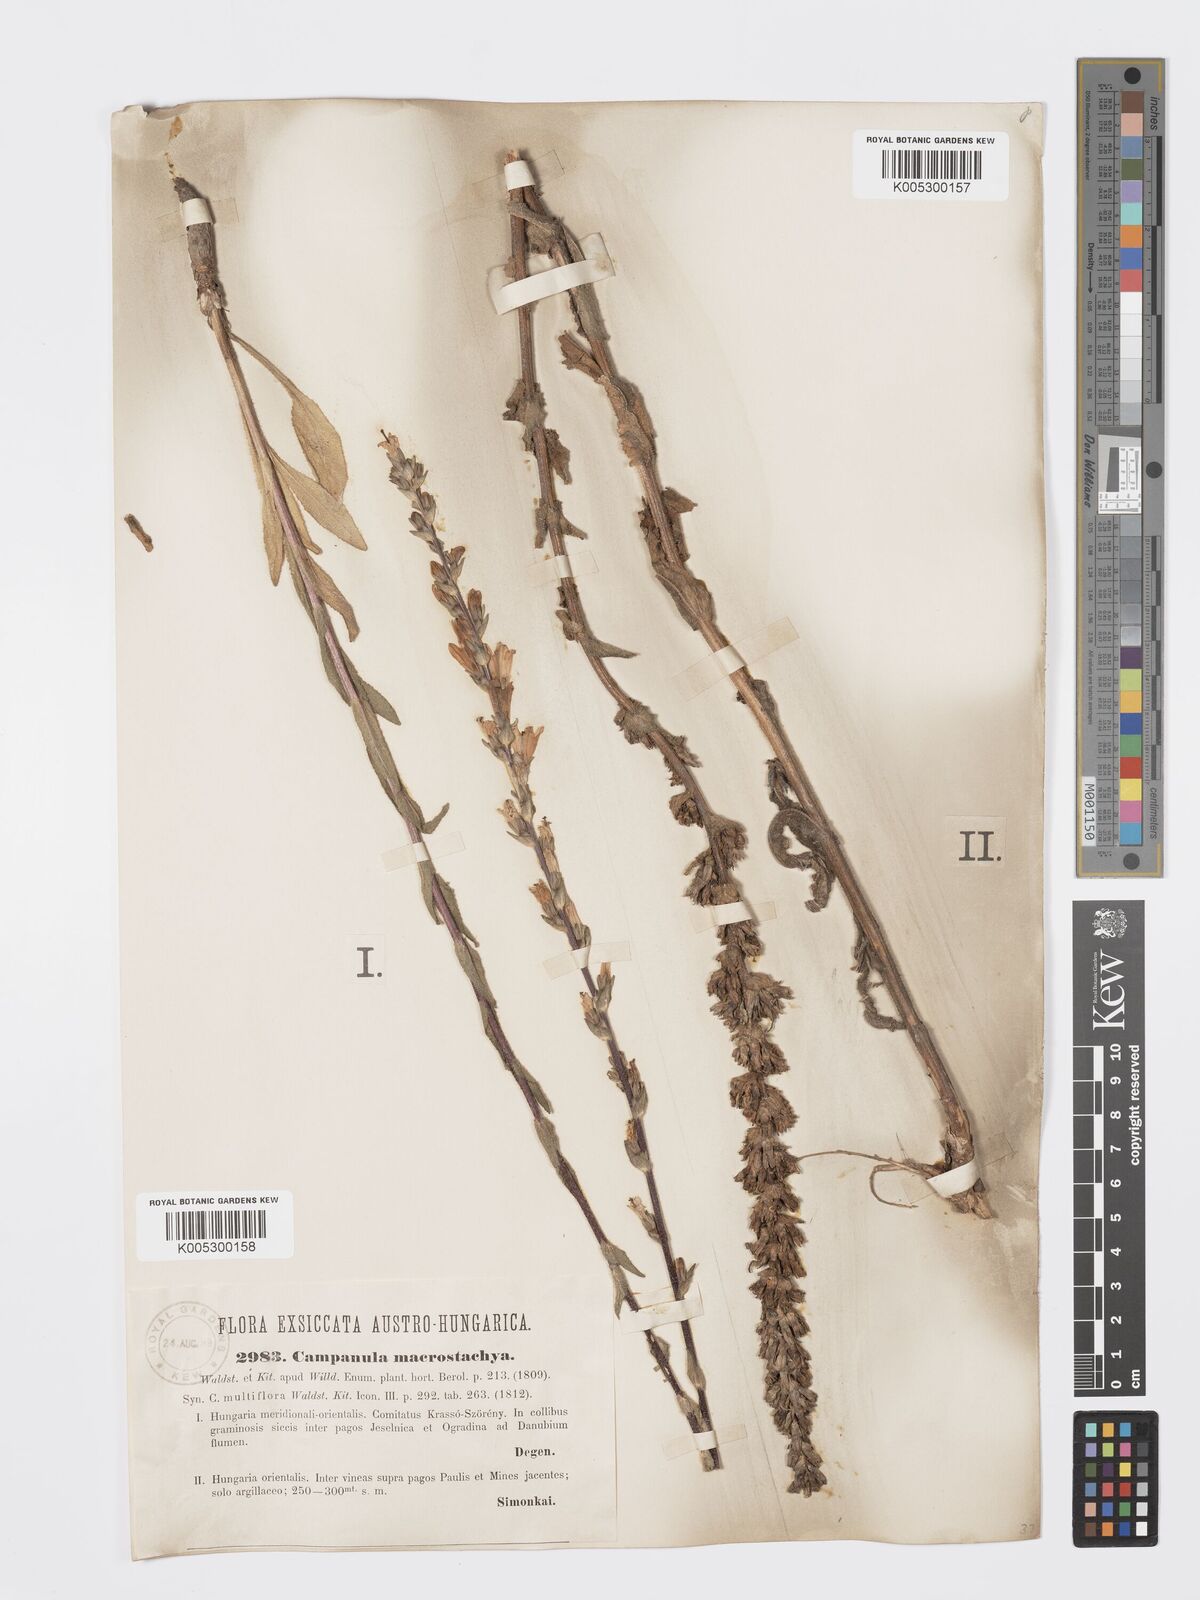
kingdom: Plantae
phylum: Tracheophyta
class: Magnoliopsida
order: Asterales
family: Campanulaceae
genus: Campanula
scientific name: Campanula macrostachya
